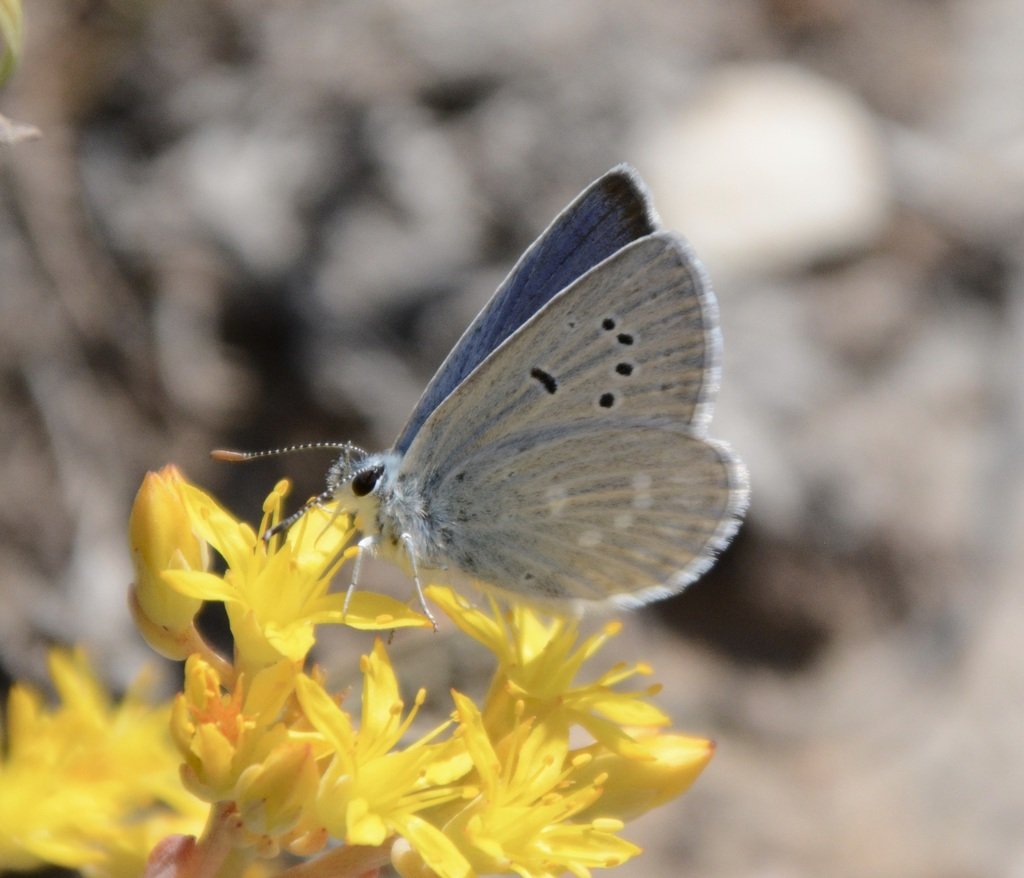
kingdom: Animalia
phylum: Arthropoda
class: Insecta
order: Lepidoptera
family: Lycaenidae
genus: Icaricia
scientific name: Icaricia icarioides
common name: Boisduval's Blue
